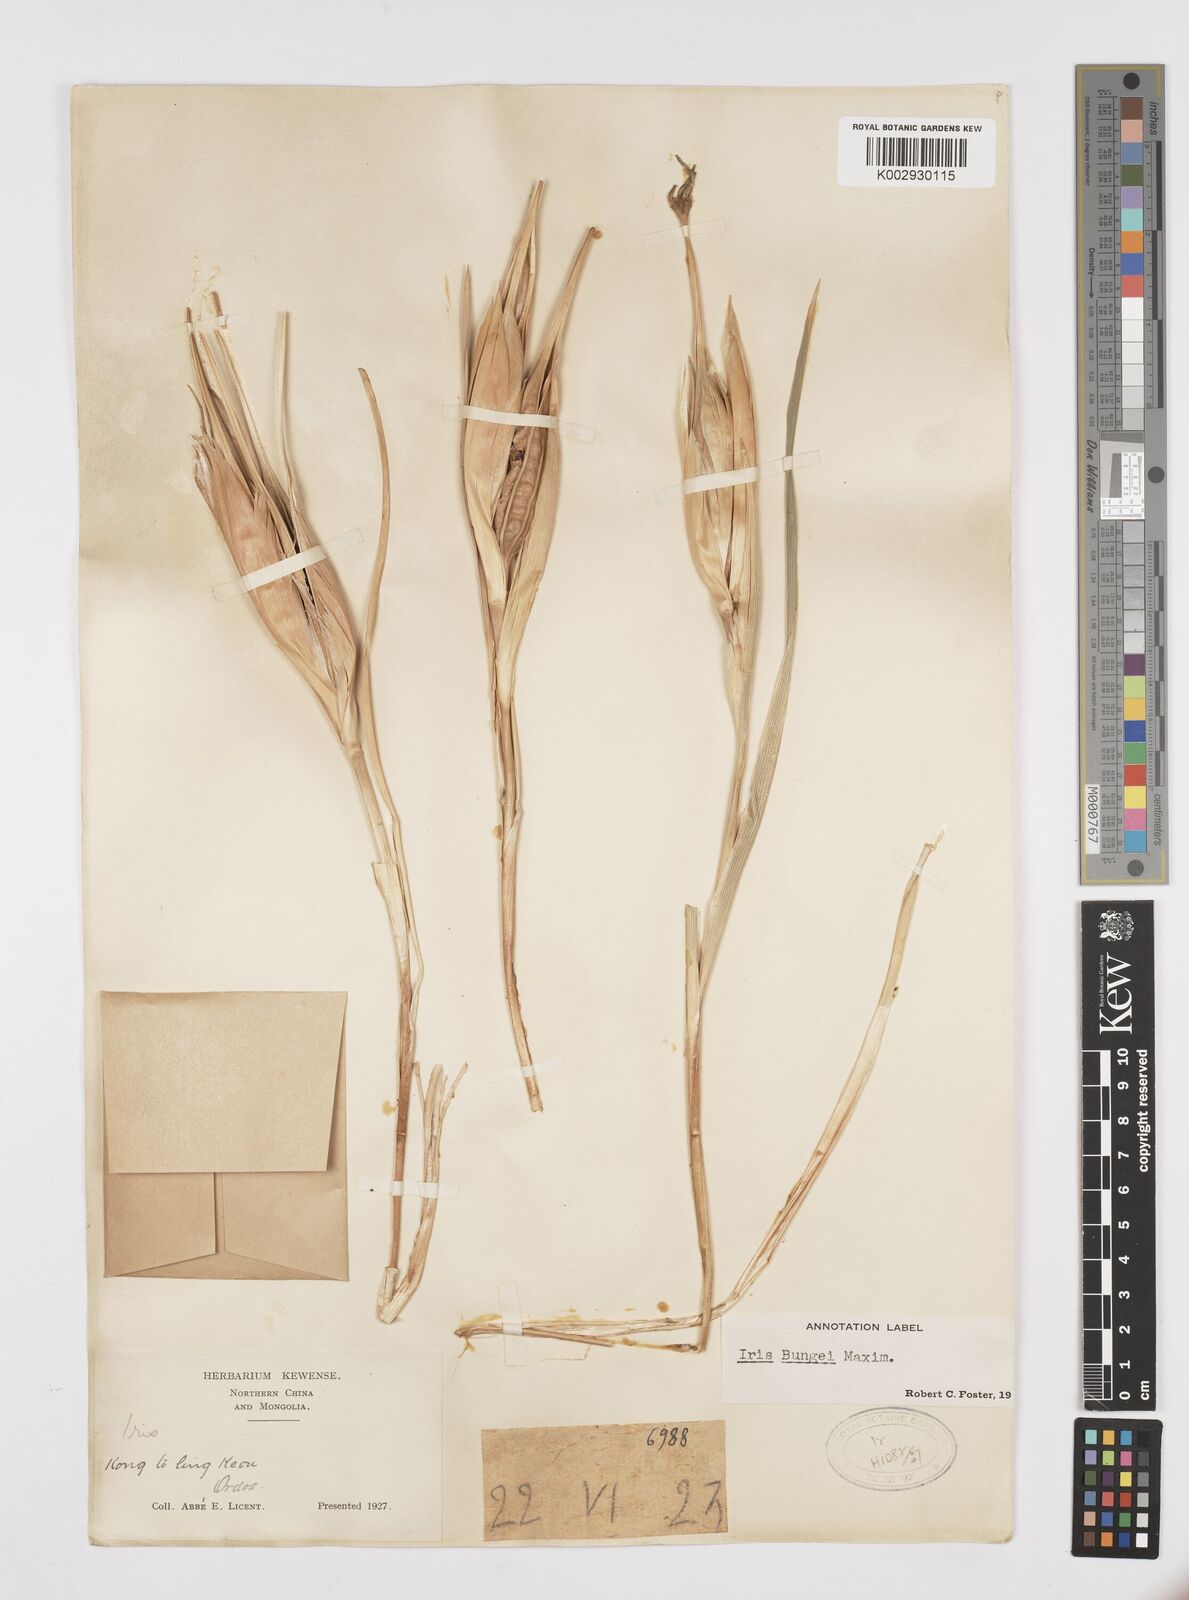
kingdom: Plantae
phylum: Tracheophyta
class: Liliopsida
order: Asparagales
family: Iridaceae
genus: Iris
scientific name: Iris bungei
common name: Large-bract iris
